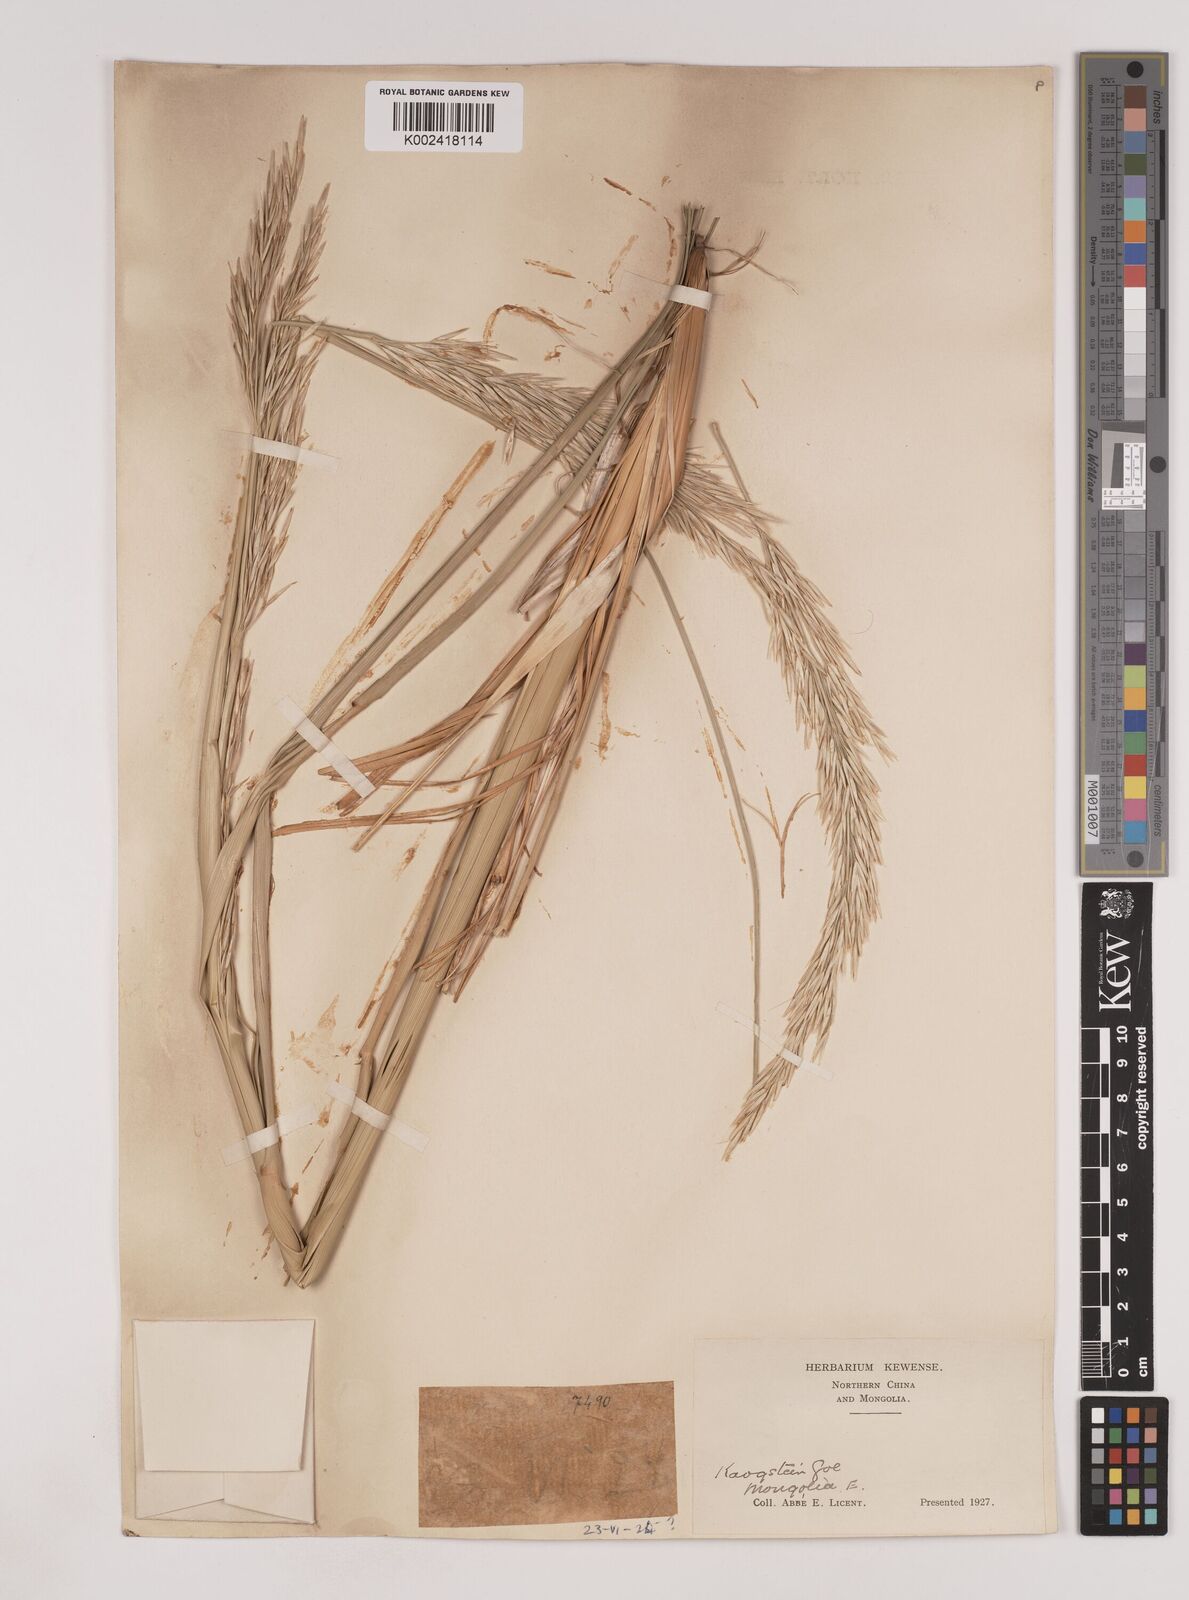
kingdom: Plantae
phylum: Tracheophyta
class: Liliopsida
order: Poales
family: Poaceae
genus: Psammochloa
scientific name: Psammochloa villosa
